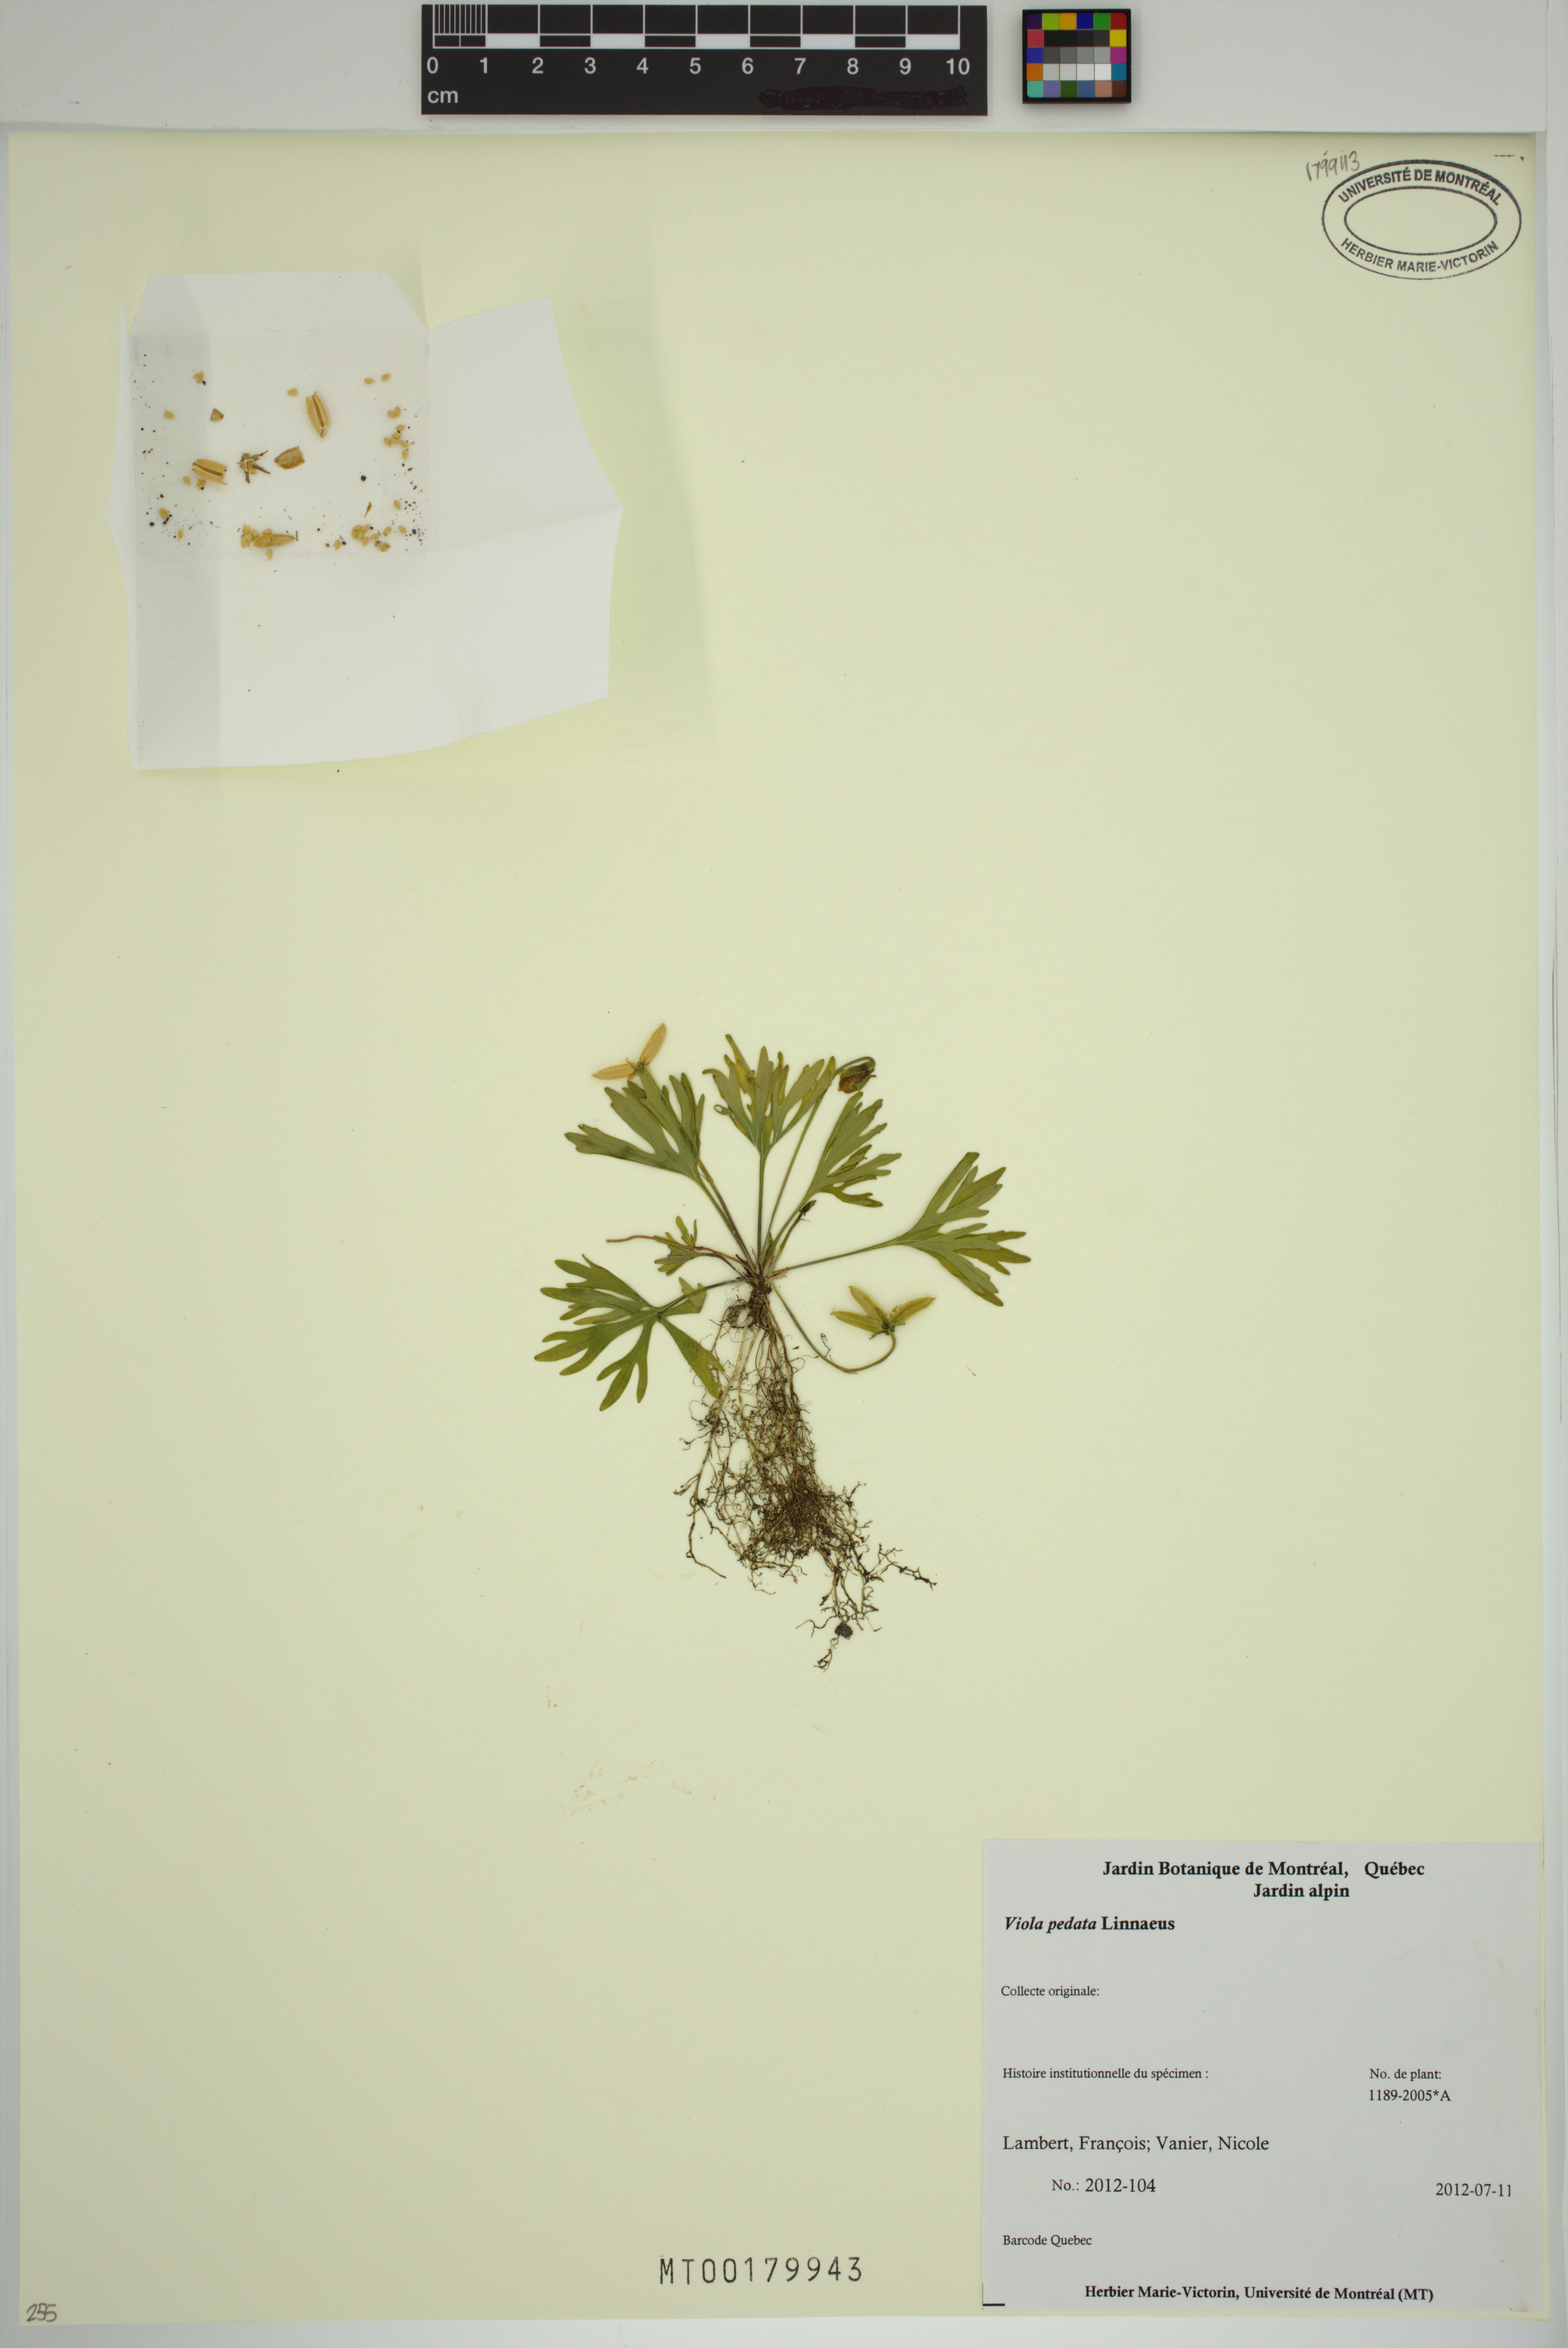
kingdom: Plantae
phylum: Tracheophyta
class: Magnoliopsida
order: Malpighiales
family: Violaceae
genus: Viola
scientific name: Viola pedata
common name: Pansy violet
